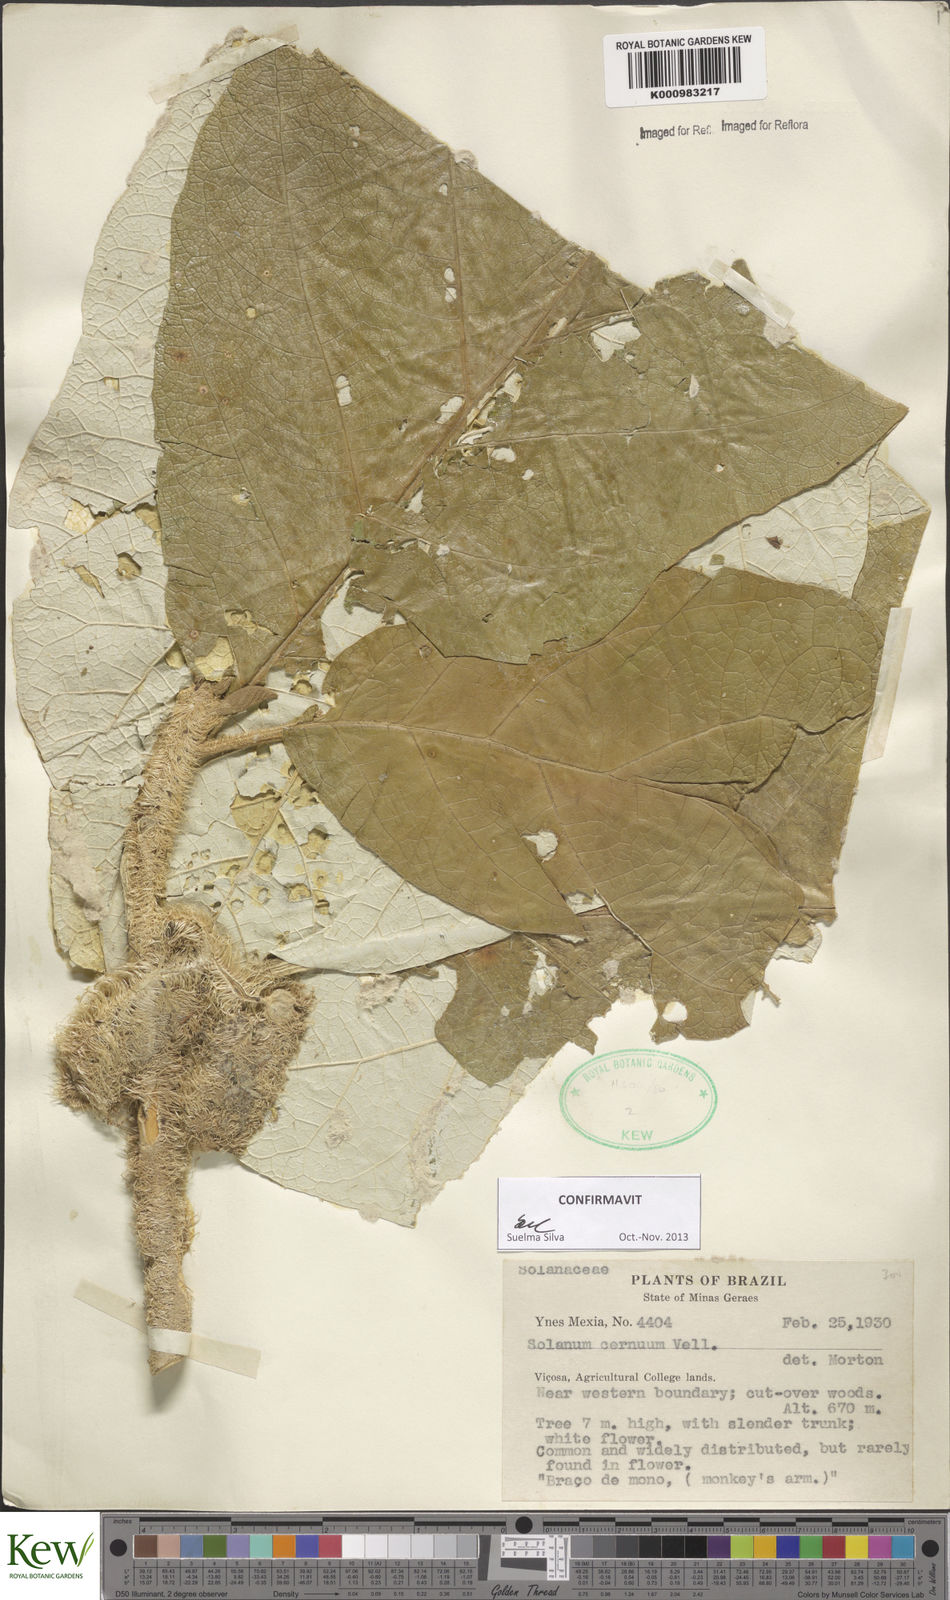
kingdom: Plantae
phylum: Tracheophyta
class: Magnoliopsida
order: Solanales
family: Solanaceae
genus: Solanum
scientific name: Solanum cernuum
